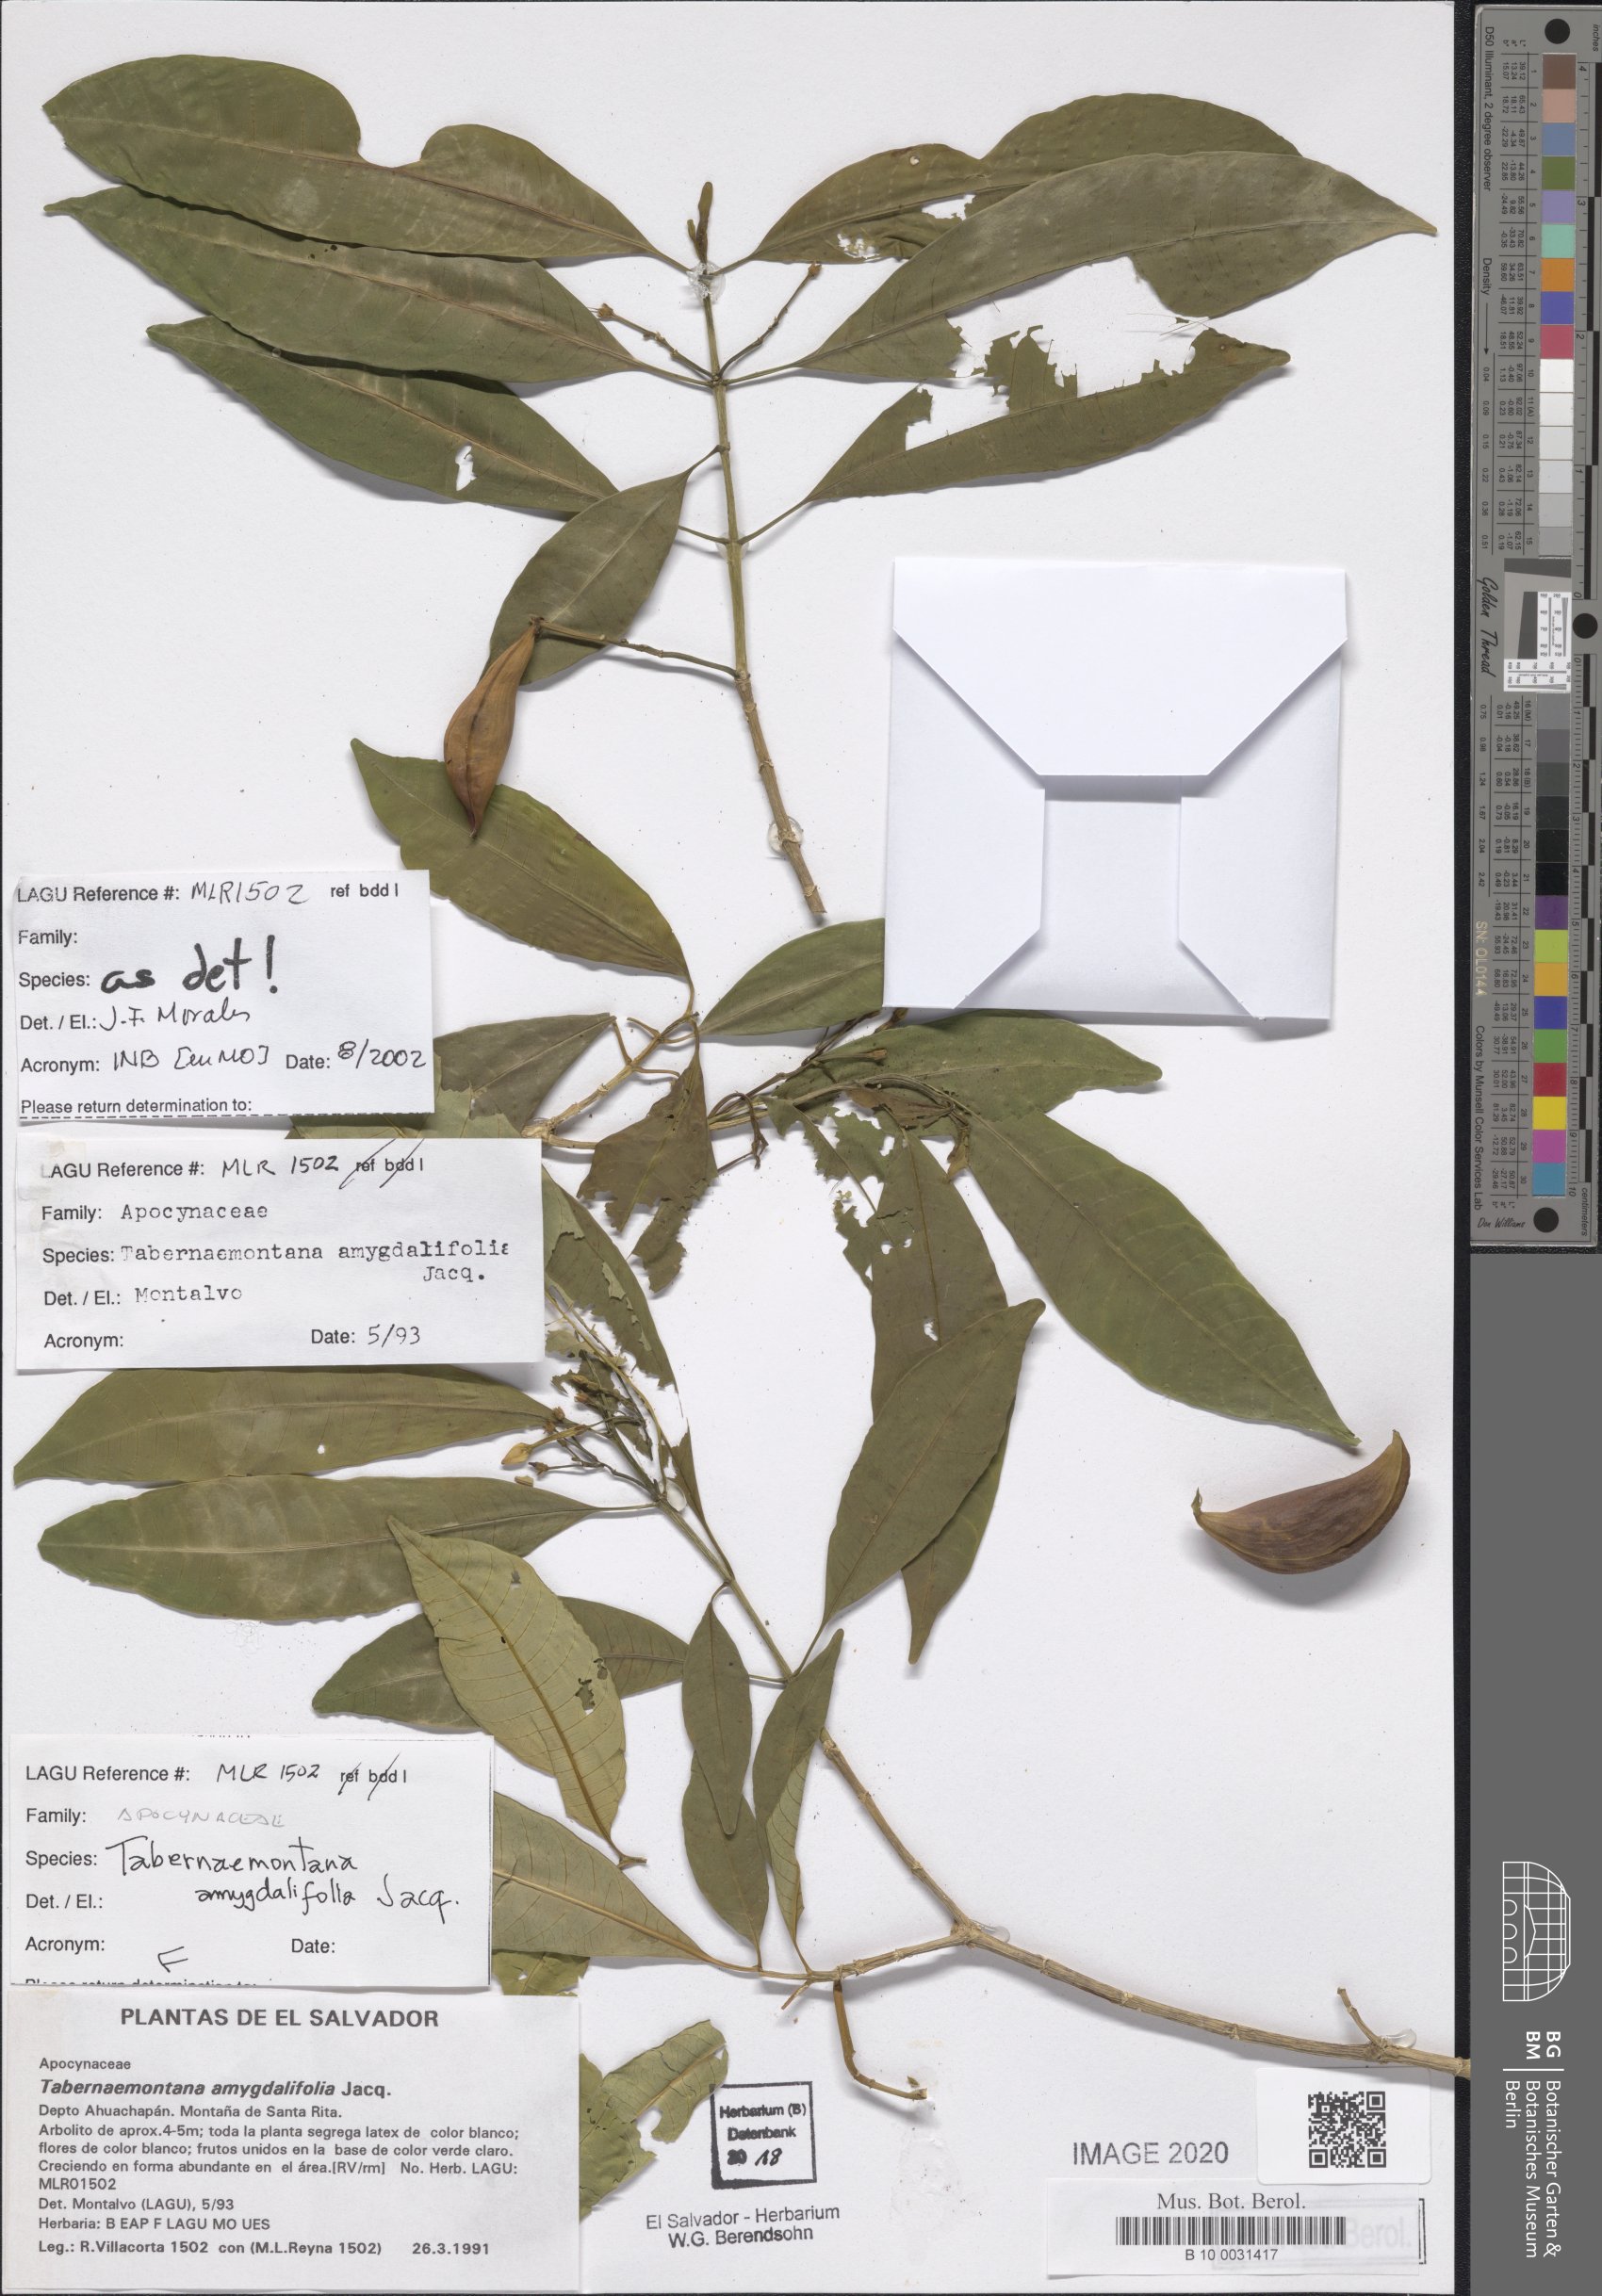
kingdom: Plantae
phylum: Tracheophyta
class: Magnoliopsida
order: Gentianales
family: Apocynaceae
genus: Tabernaemontana
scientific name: Tabernaemontana amygdalifolia
